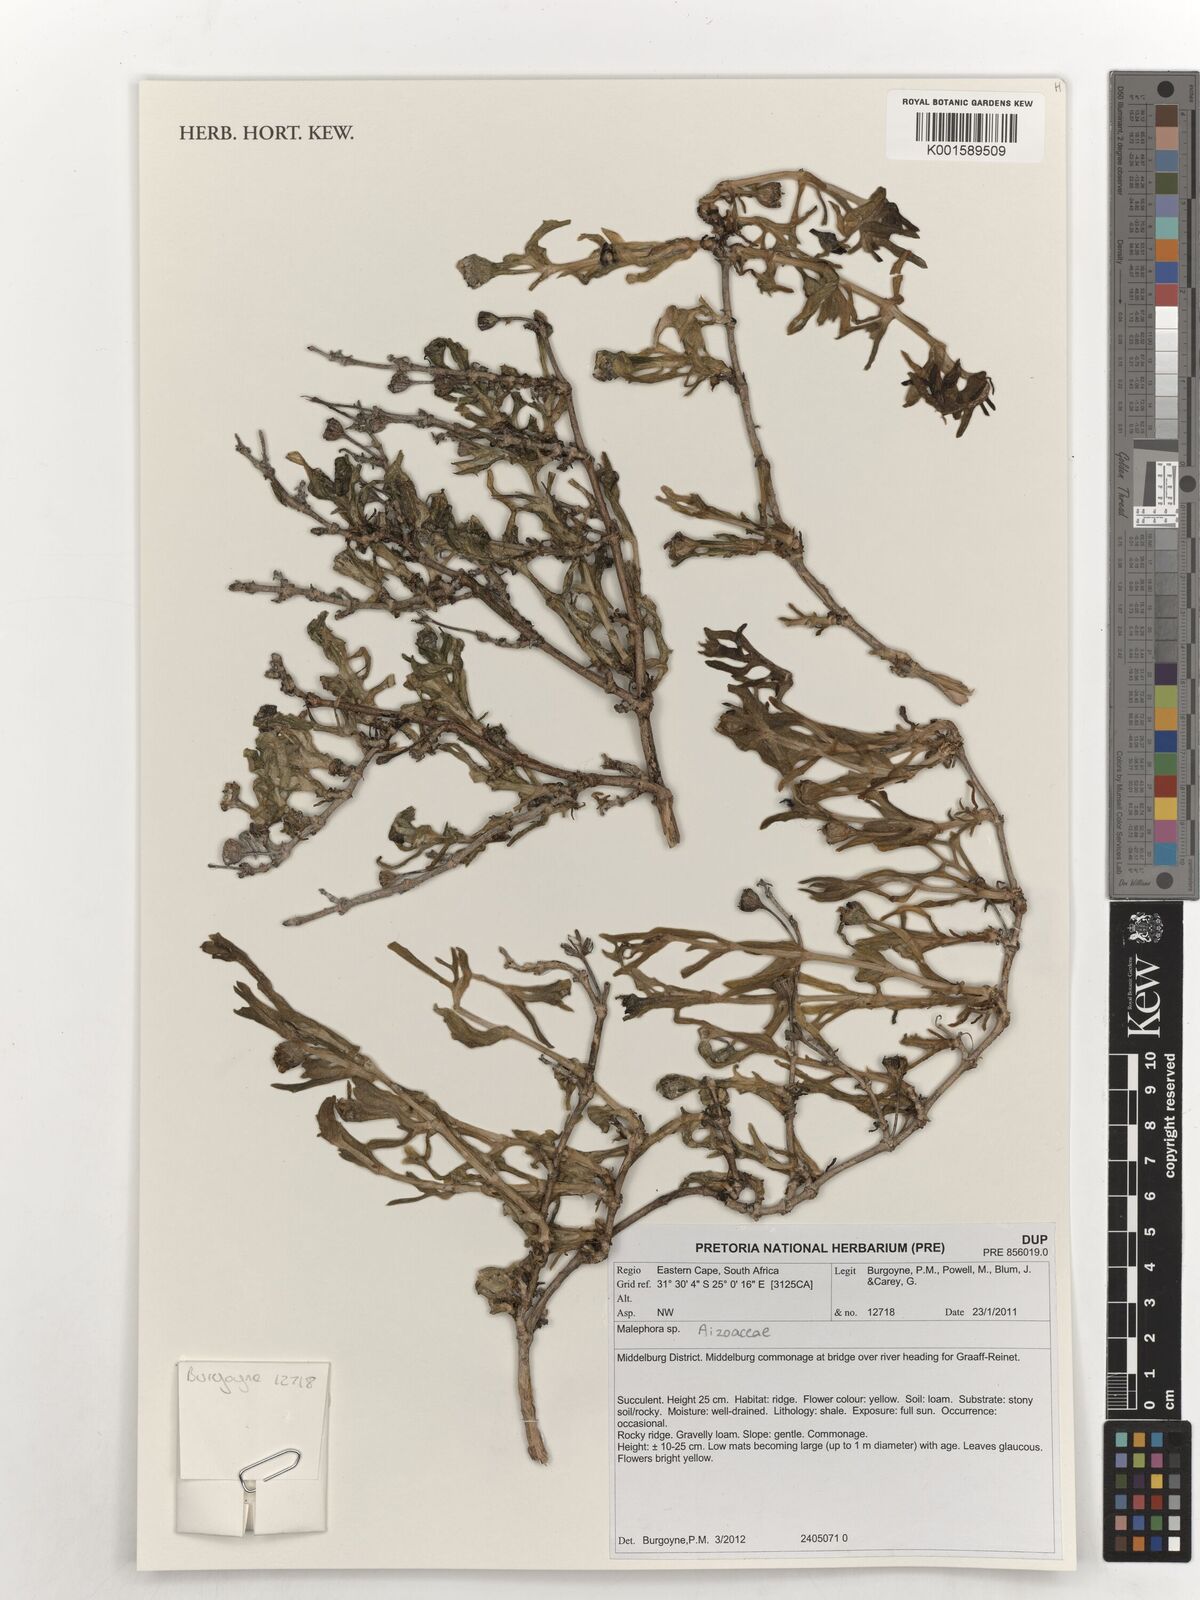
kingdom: Plantae
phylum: Tracheophyta
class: Magnoliopsida
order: Caryophyllales
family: Aizoaceae
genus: Malephora
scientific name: Malephora
